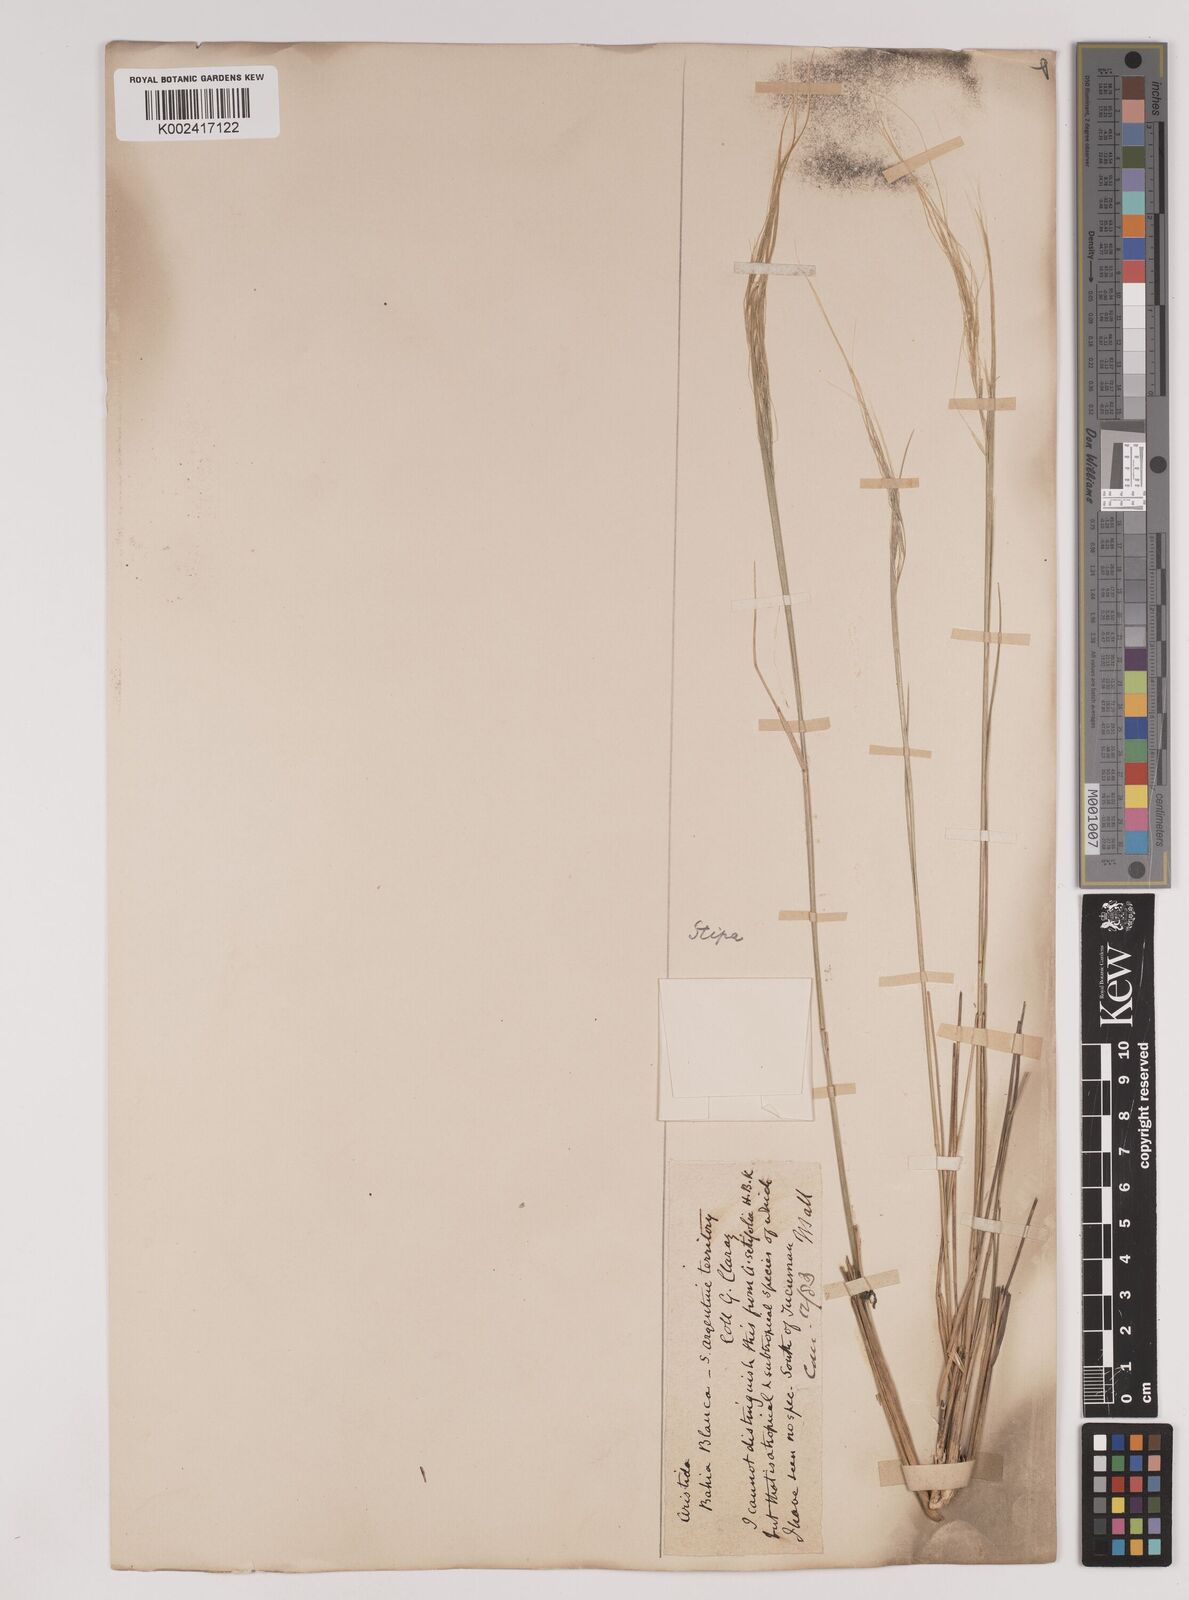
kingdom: Plantae
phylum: Tracheophyta
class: Liliopsida
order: Poales
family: Poaceae
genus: Stipa
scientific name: Stipa
